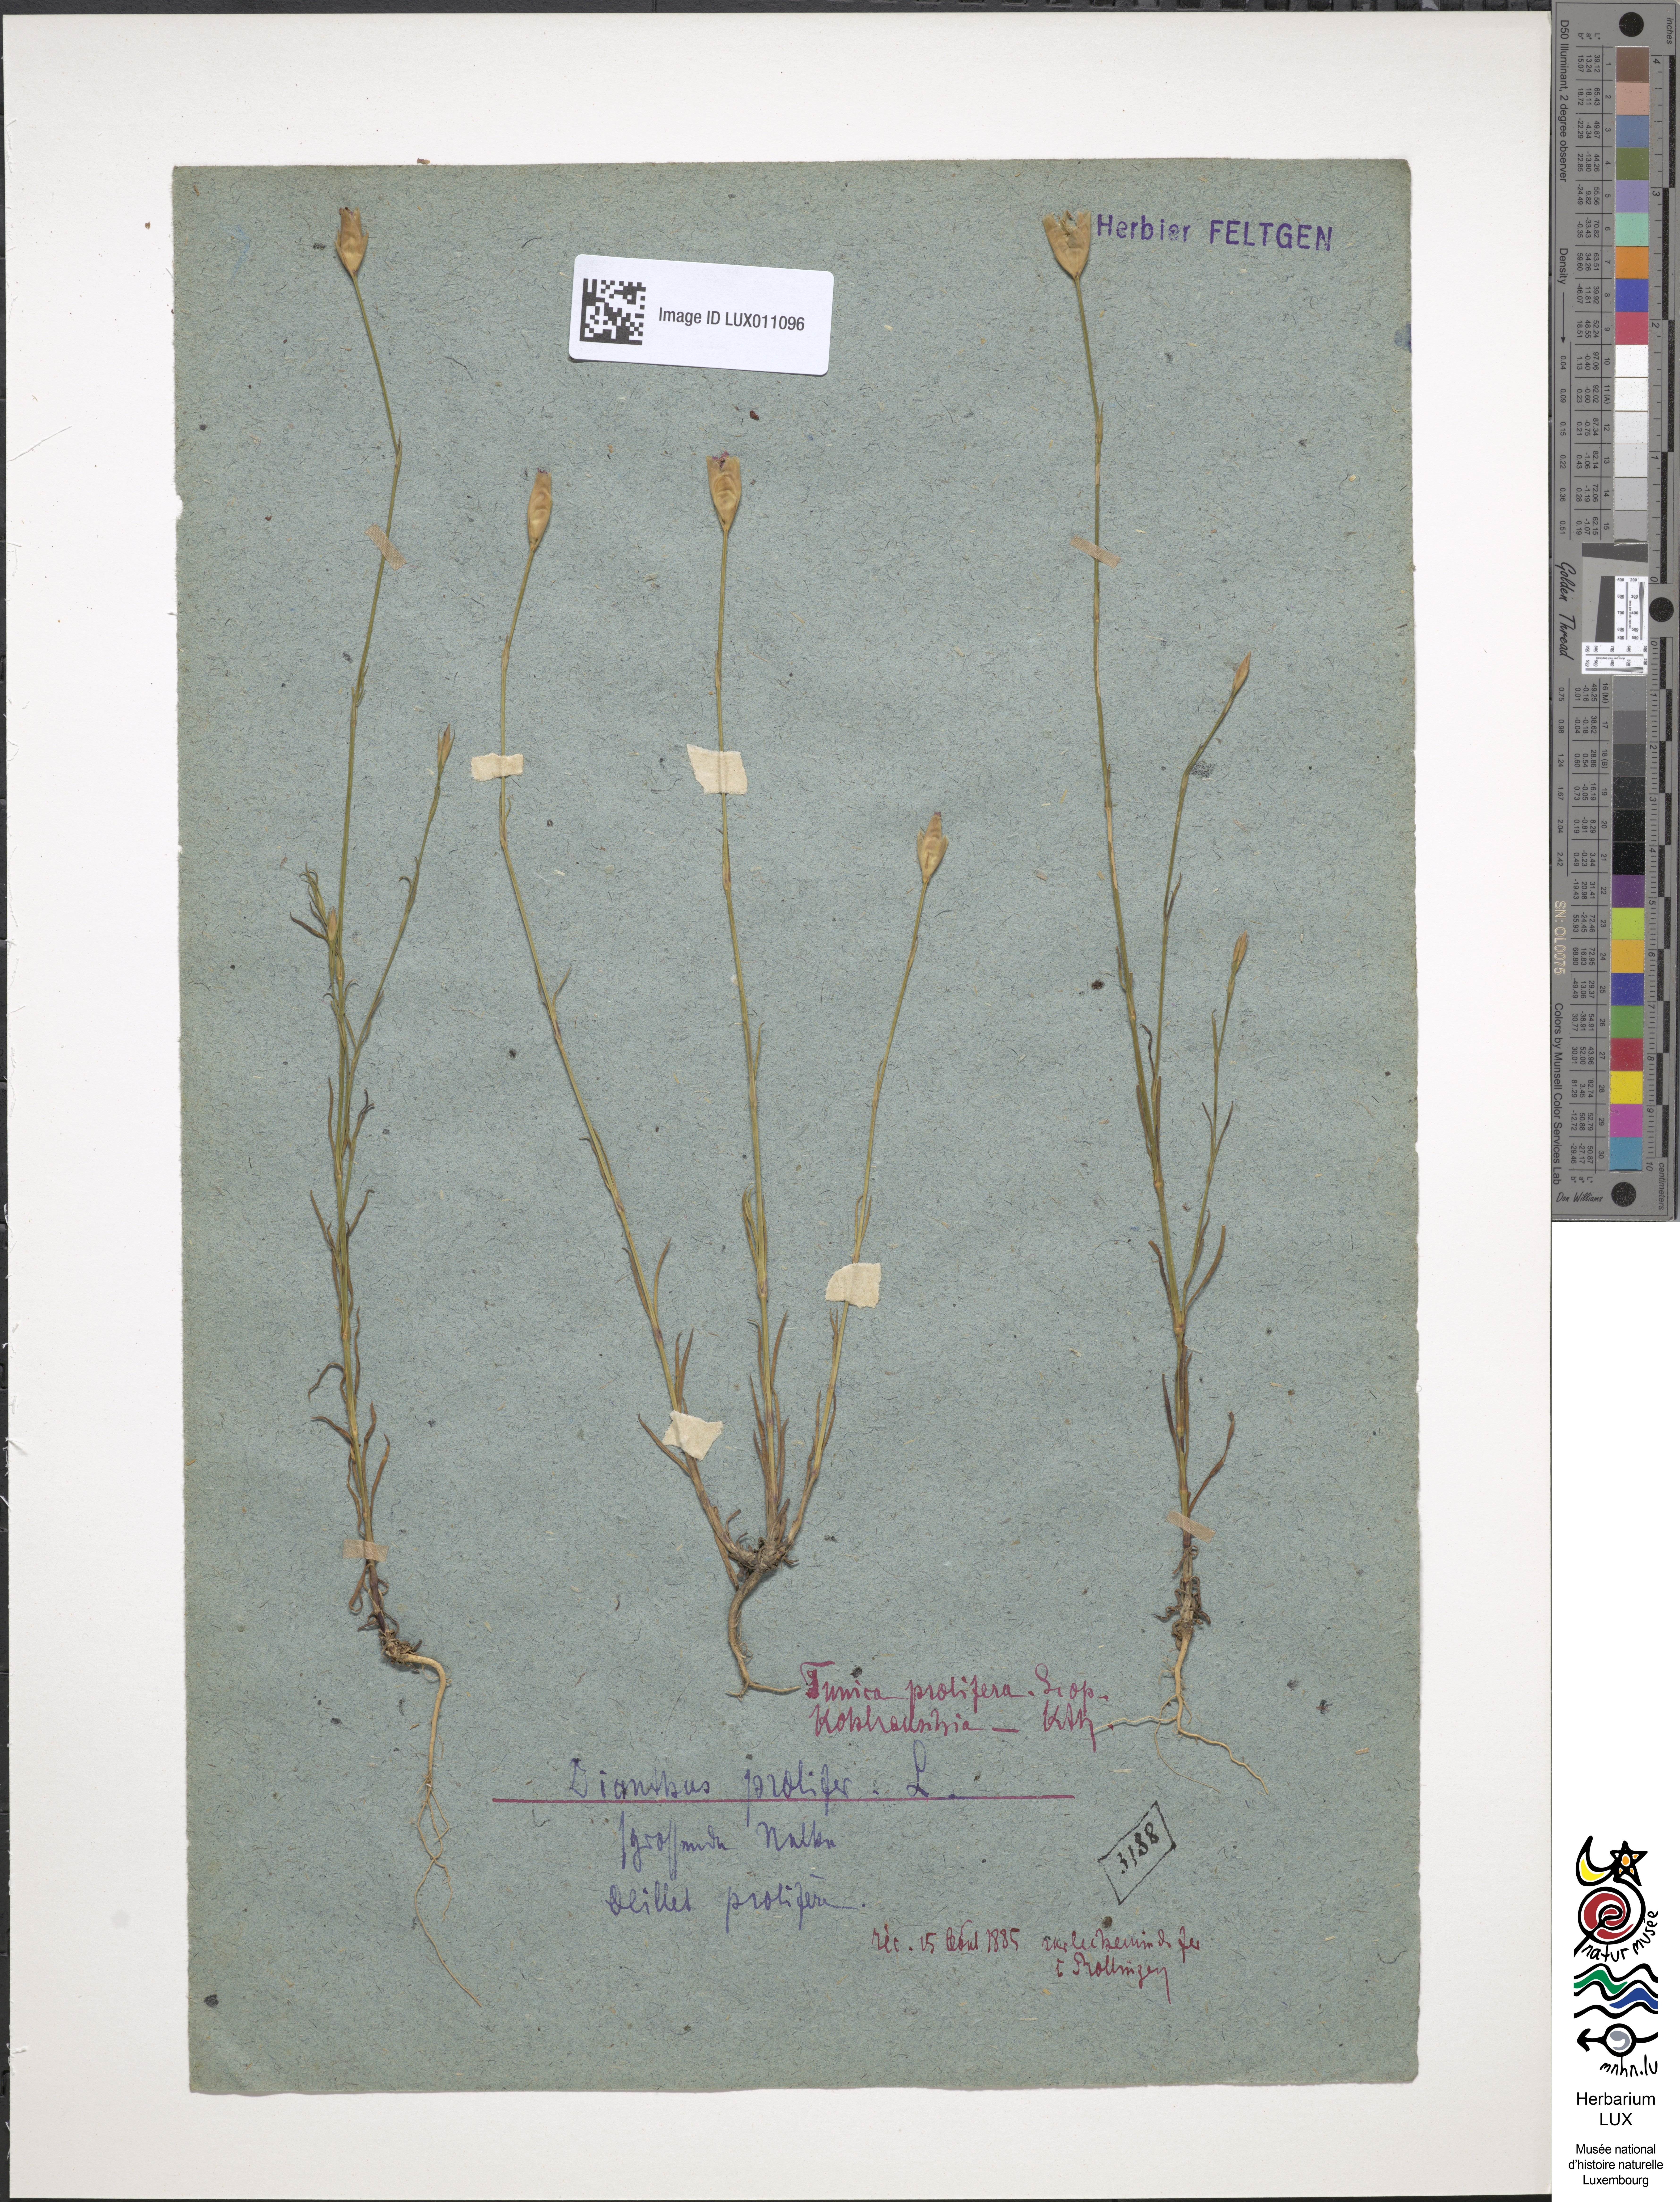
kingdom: Plantae
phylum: Tracheophyta
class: Magnoliopsida
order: Caryophyllales
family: Caryophyllaceae
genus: Petrorhagia
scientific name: Petrorhagia prolifera
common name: Proliferous pink
